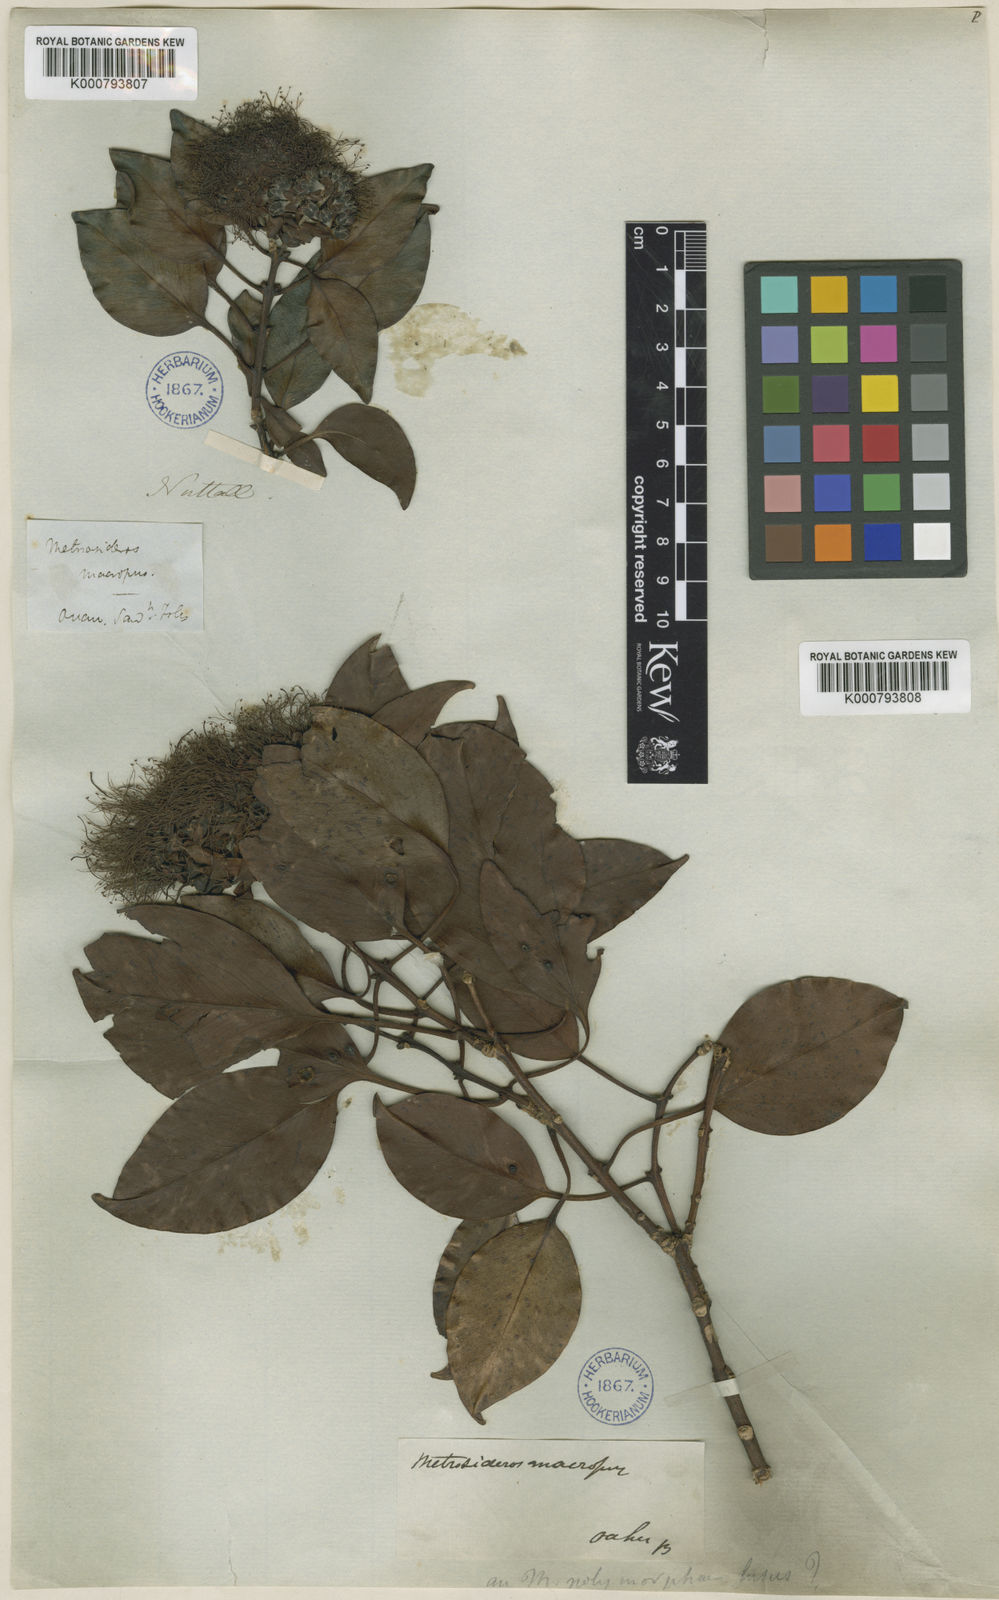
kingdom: Plantae
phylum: Tracheophyta
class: Magnoliopsida
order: Myrtales
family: Myrtaceae
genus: Metrosideros
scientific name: Metrosideros macropus
